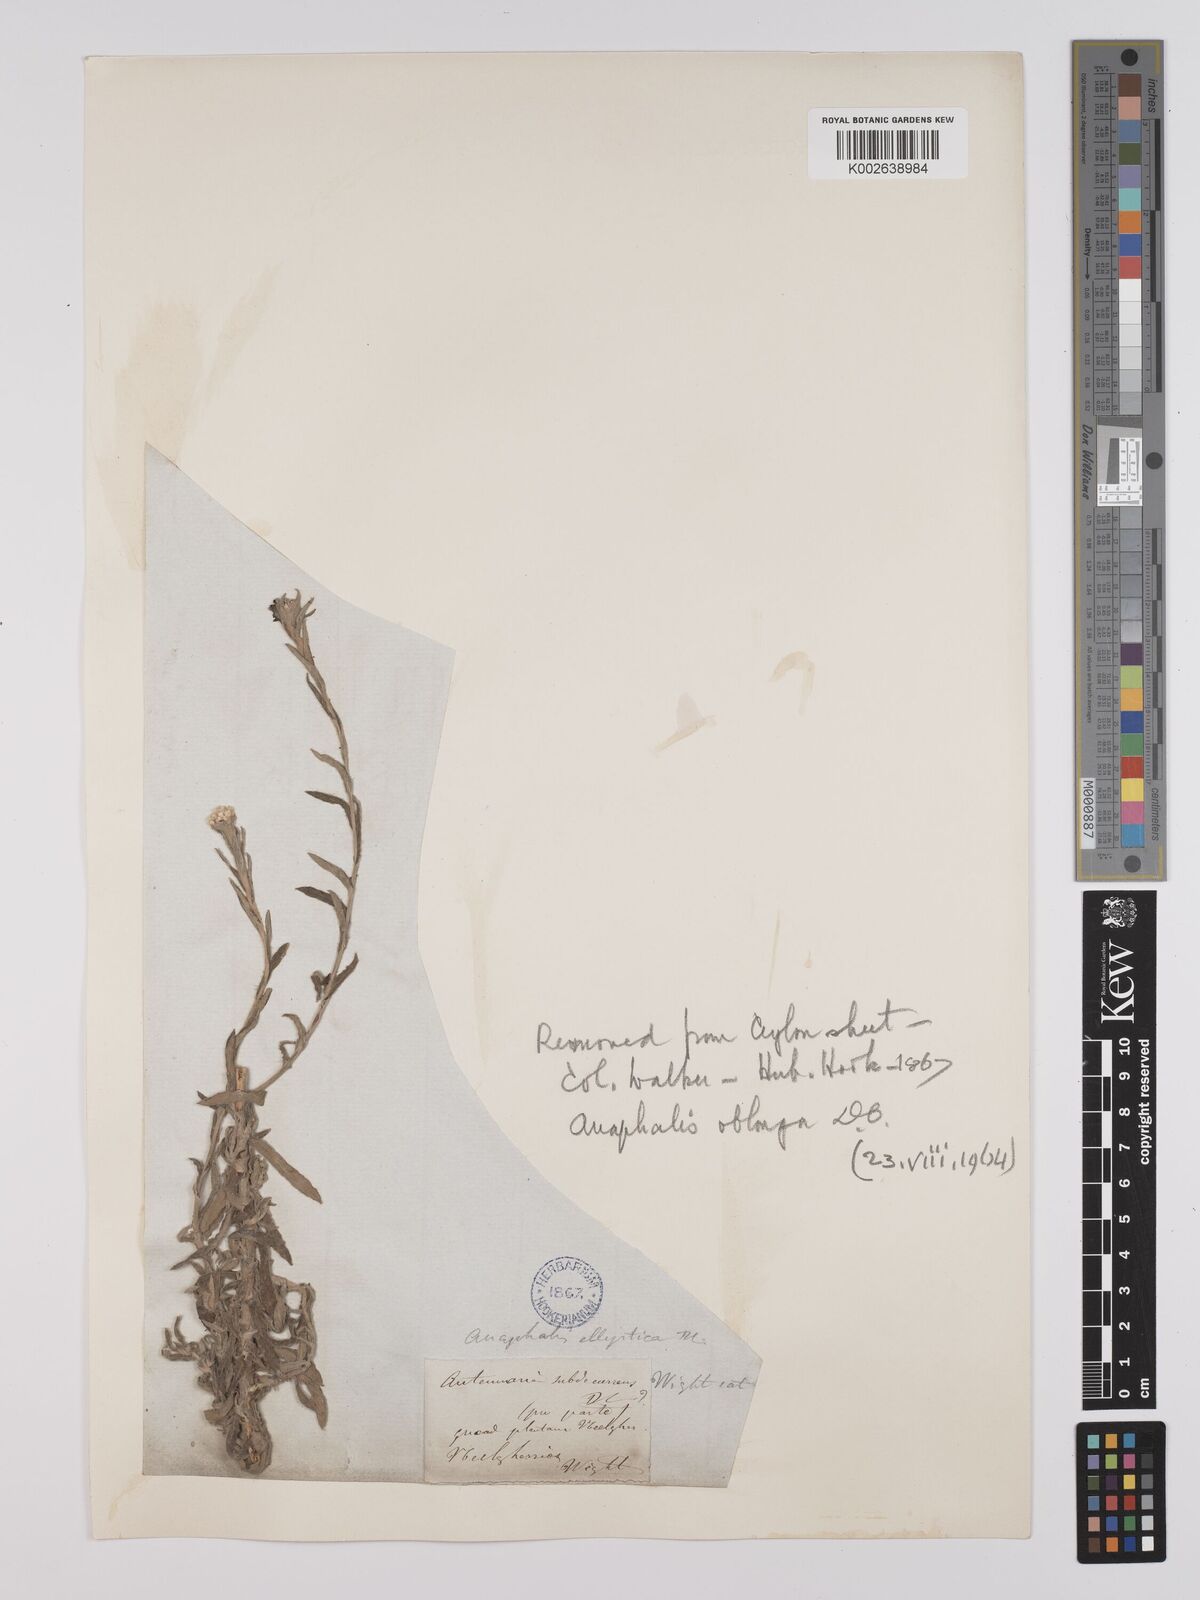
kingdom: Plantae
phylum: Tracheophyta
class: Magnoliopsida
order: Asterales
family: Asteraceae
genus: Anaphalis
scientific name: Anaphalis subdecurrens
